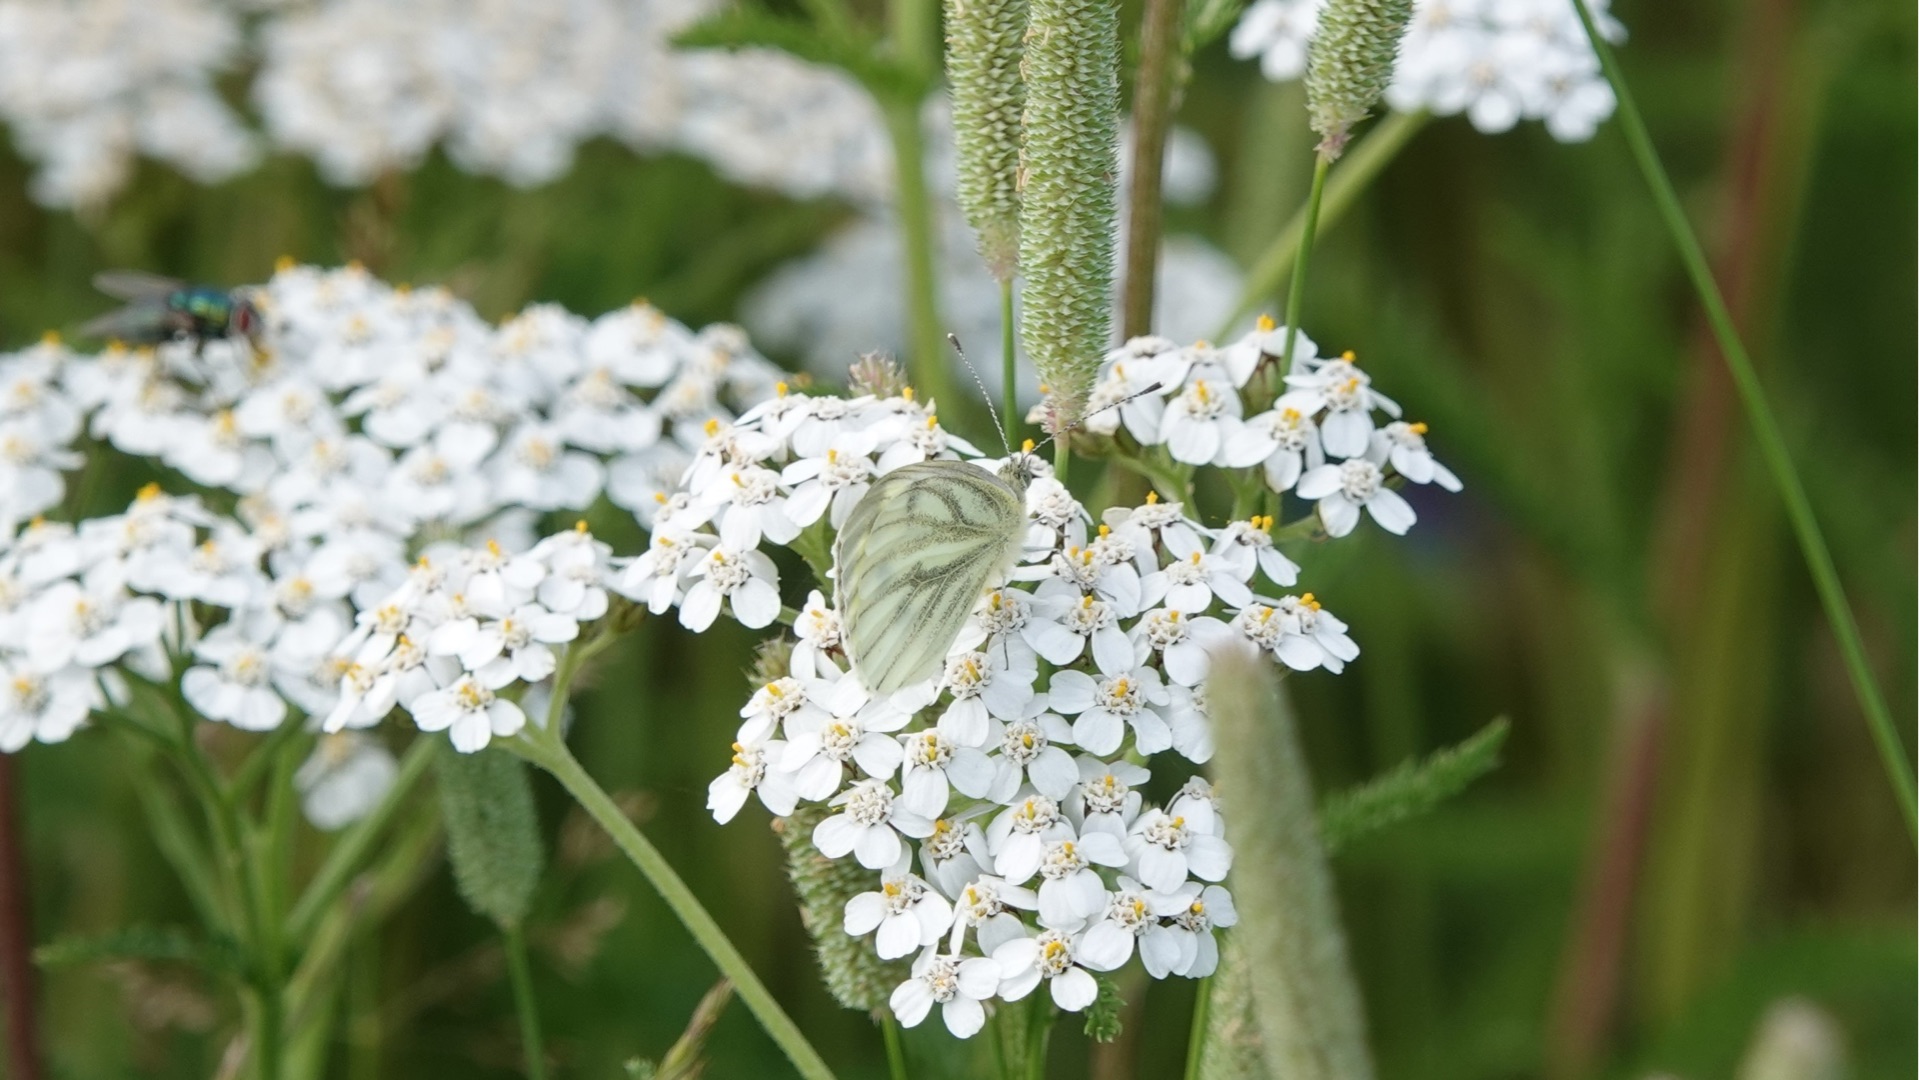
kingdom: Animalia
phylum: Arthropoda
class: Insecta
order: Lepidoptera
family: Pieridae
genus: Pieris
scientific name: Pieris napi
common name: Grønåret kålsommerfugl
